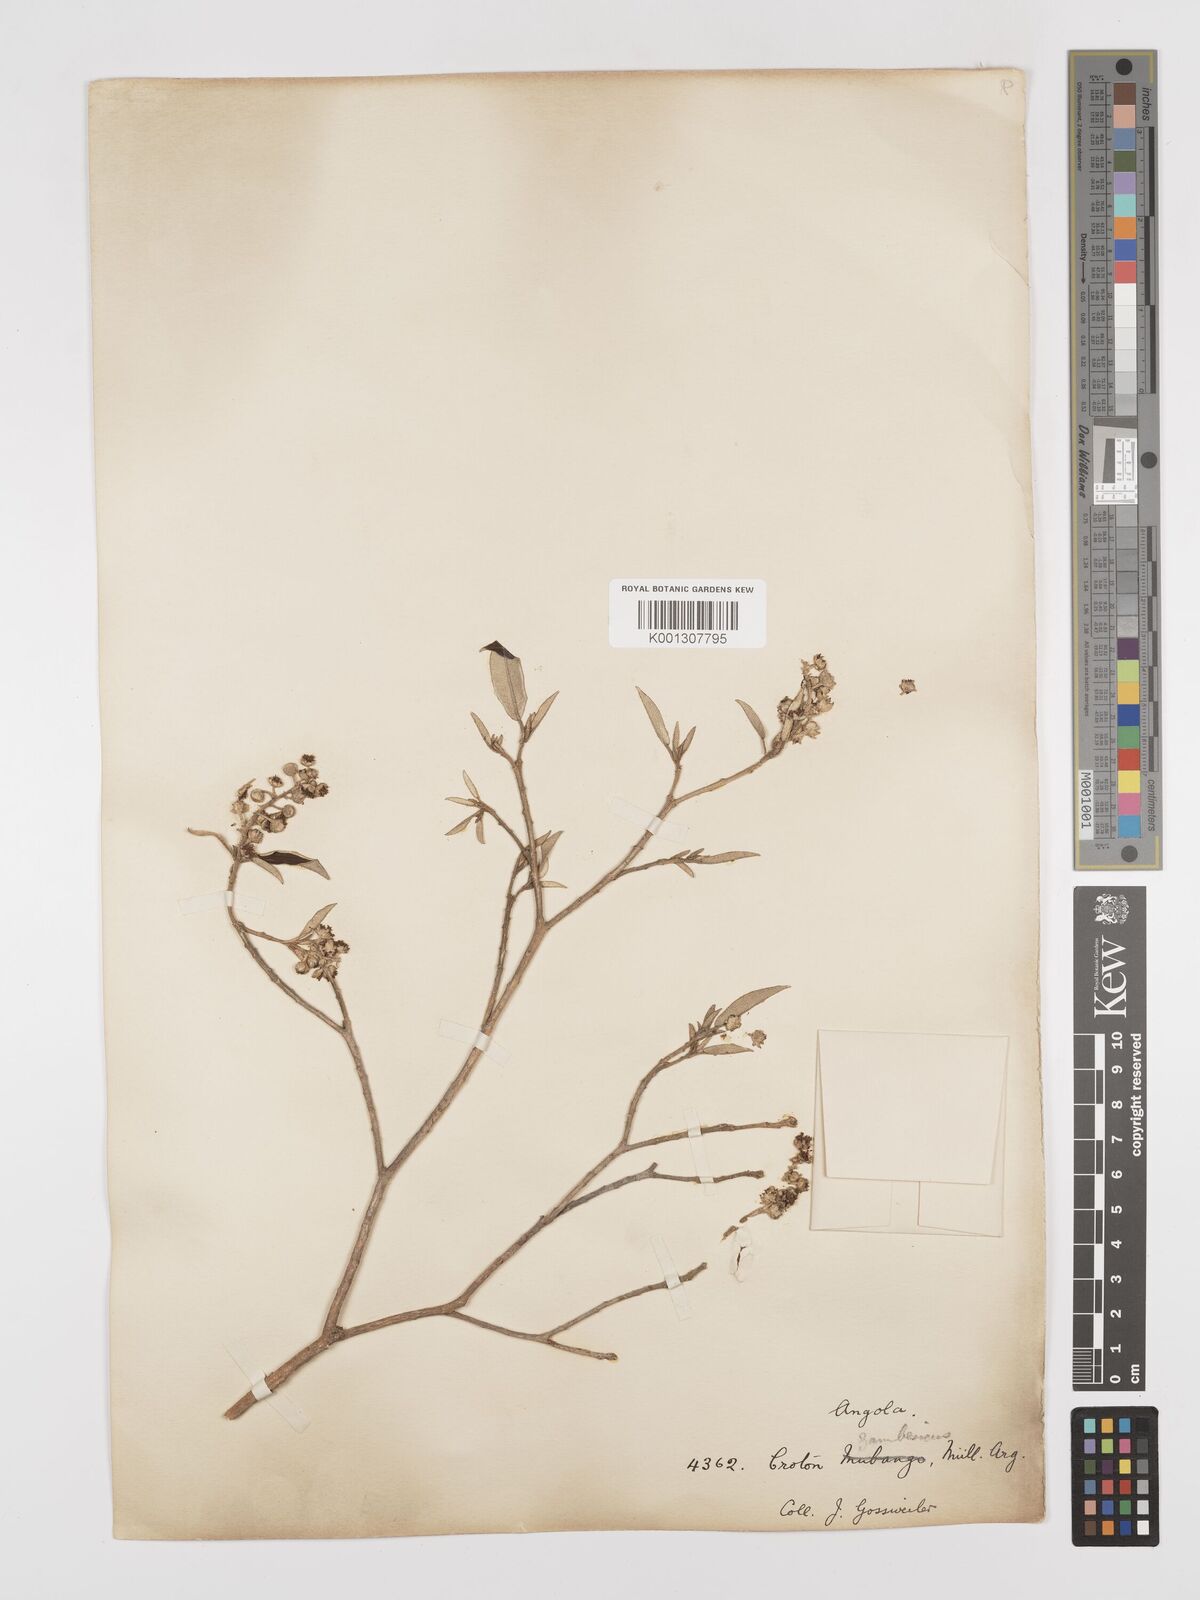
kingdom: Plantae
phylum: Tracheophyta
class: Magnoliopsida
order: Malpighiales
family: Euphorbiaceae
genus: Croton
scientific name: Croton mubango
